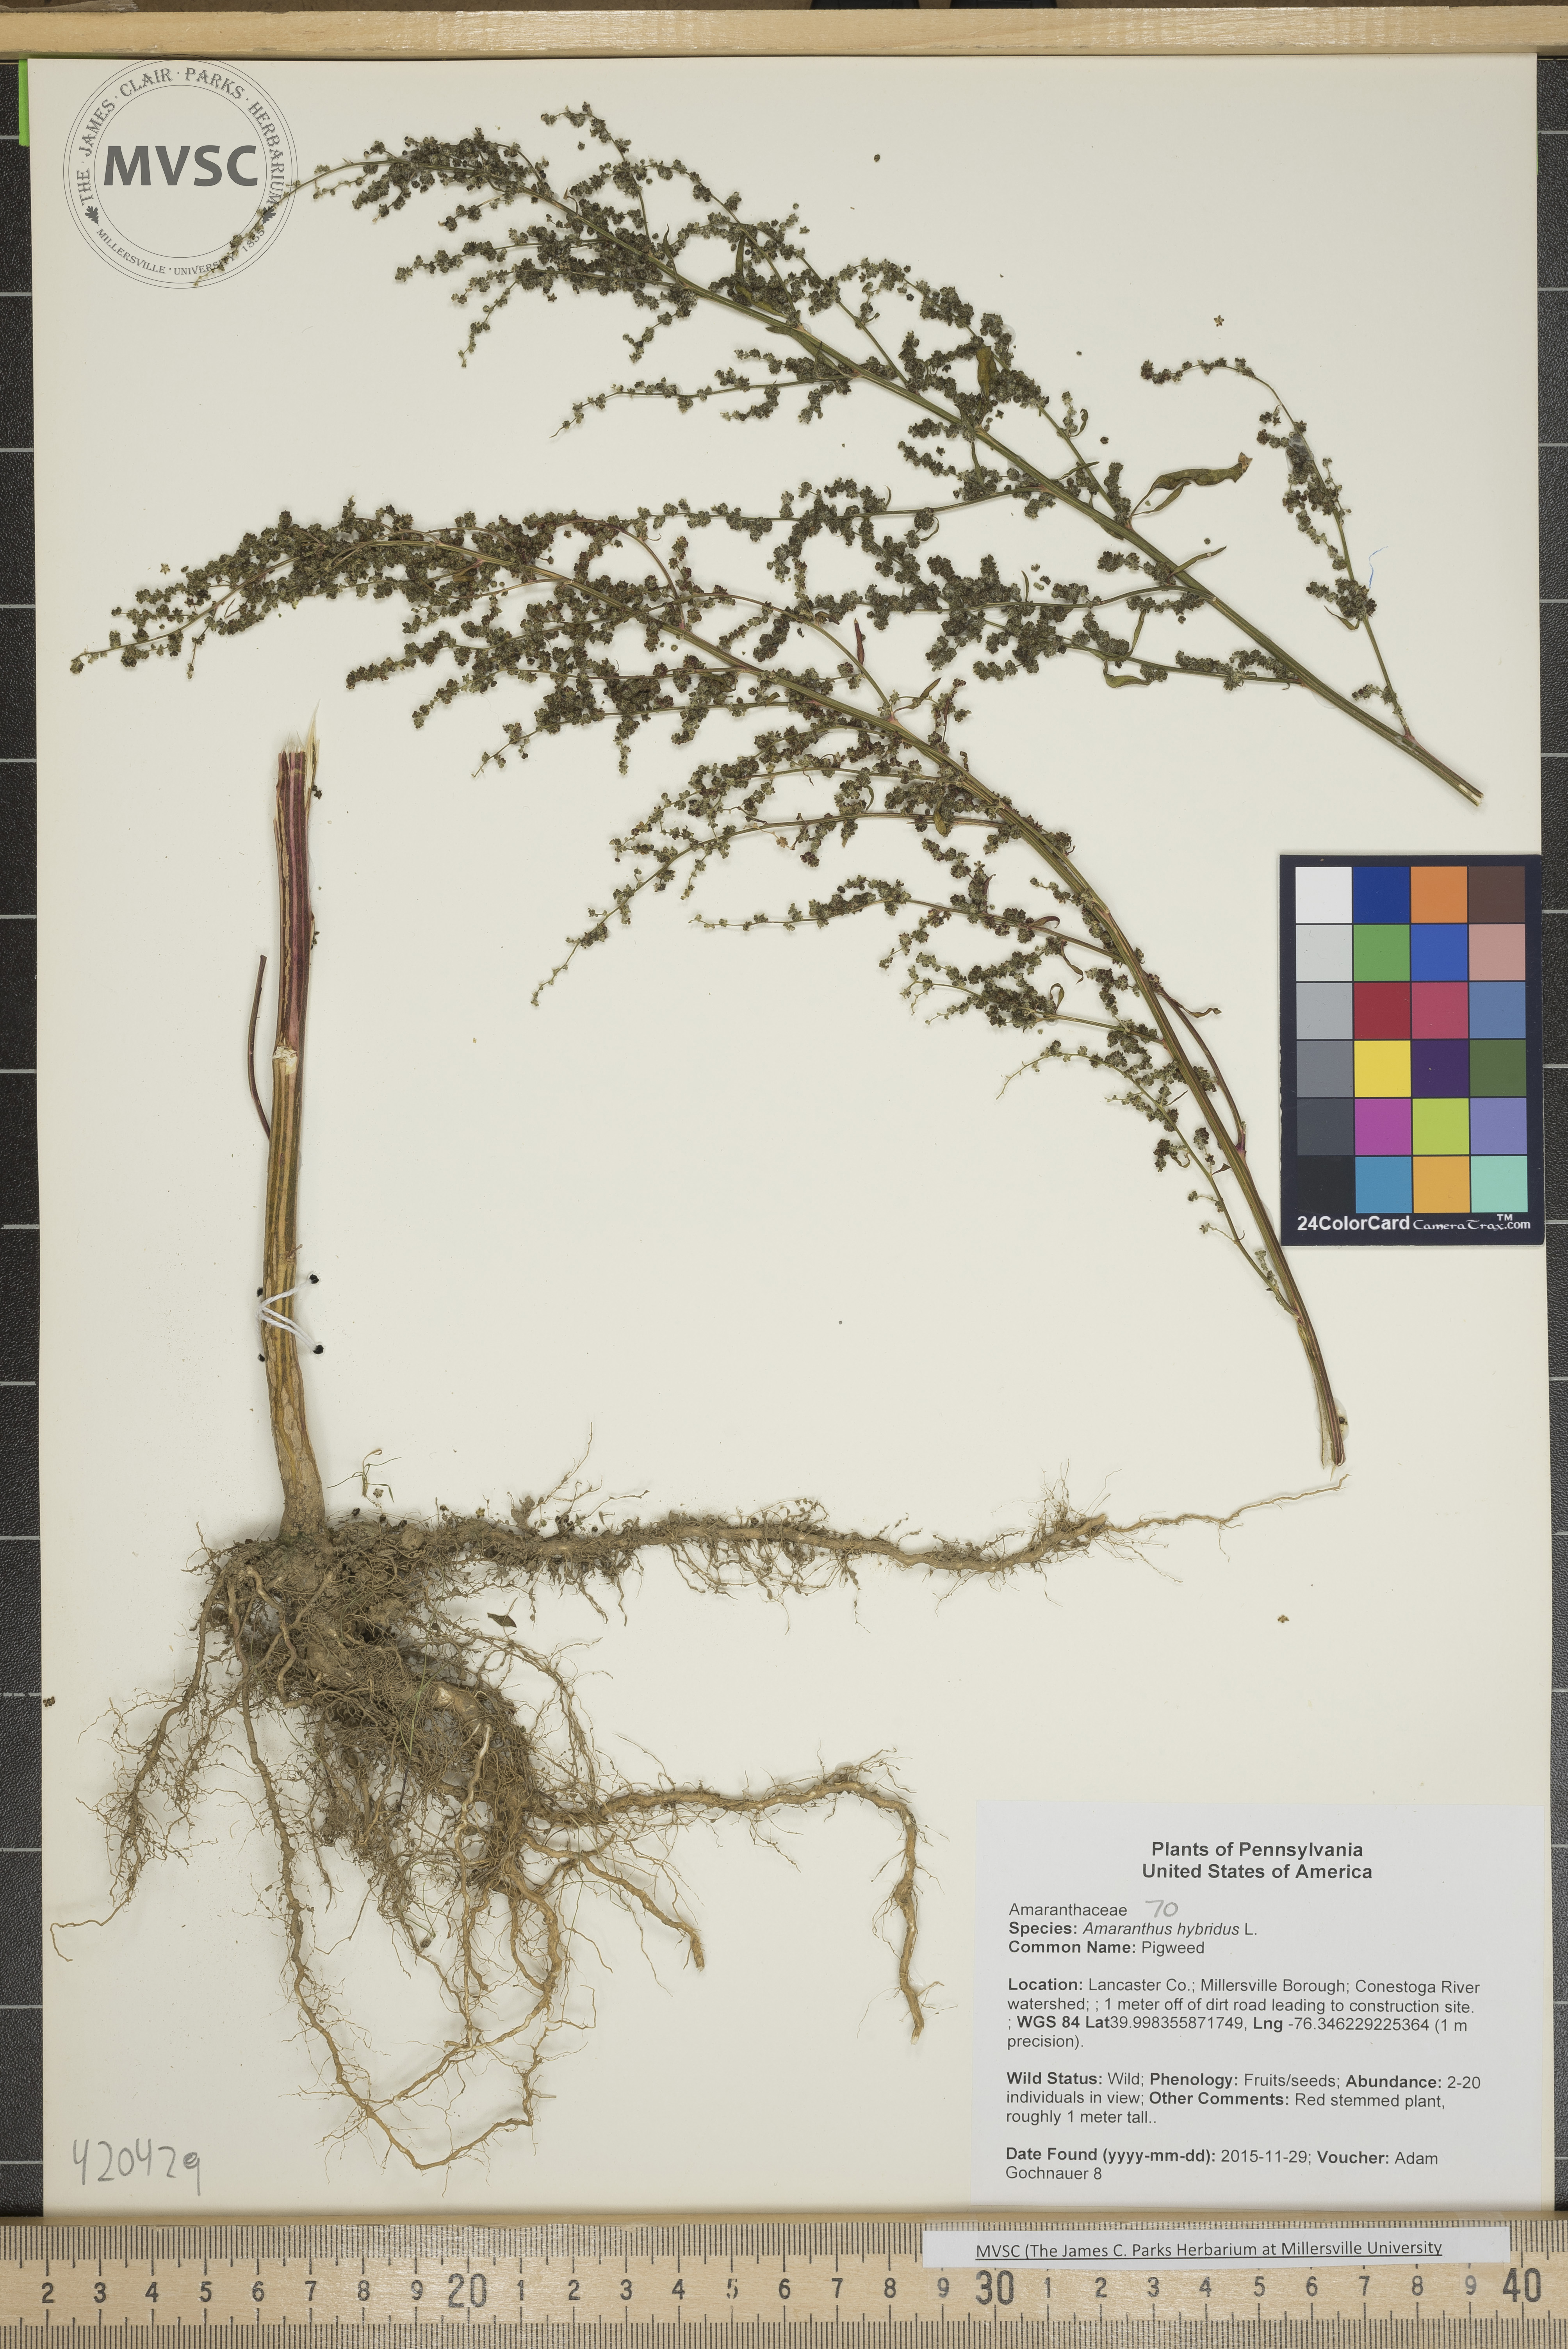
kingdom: Plantae
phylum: Tracheophyta
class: Magnoliopsida
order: Caryophyllales
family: Amaranthaceae
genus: Chenopodium
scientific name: Chenopodium album
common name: Fat-hen
